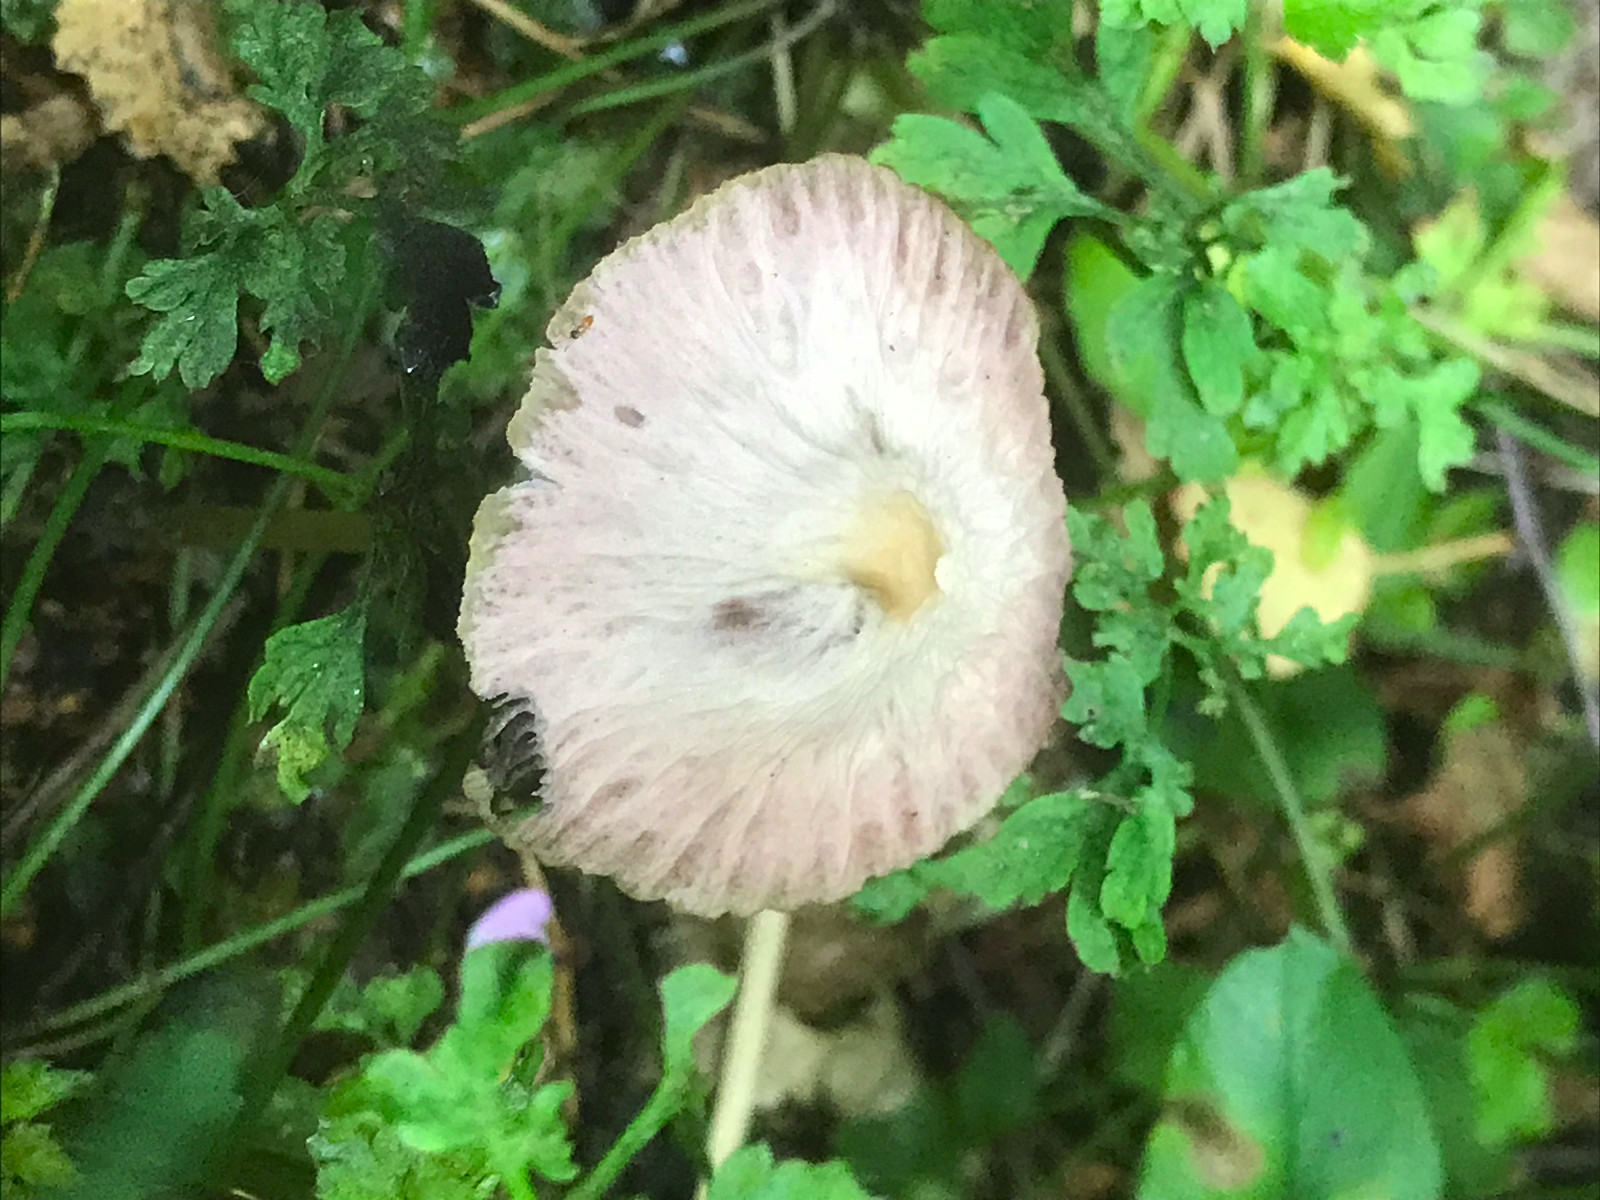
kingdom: Fungi
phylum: Basidiomycota
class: Agaricomycetes
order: Agaricales
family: Psathyrellaceae
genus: Psathyrella
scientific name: Psathyrella
